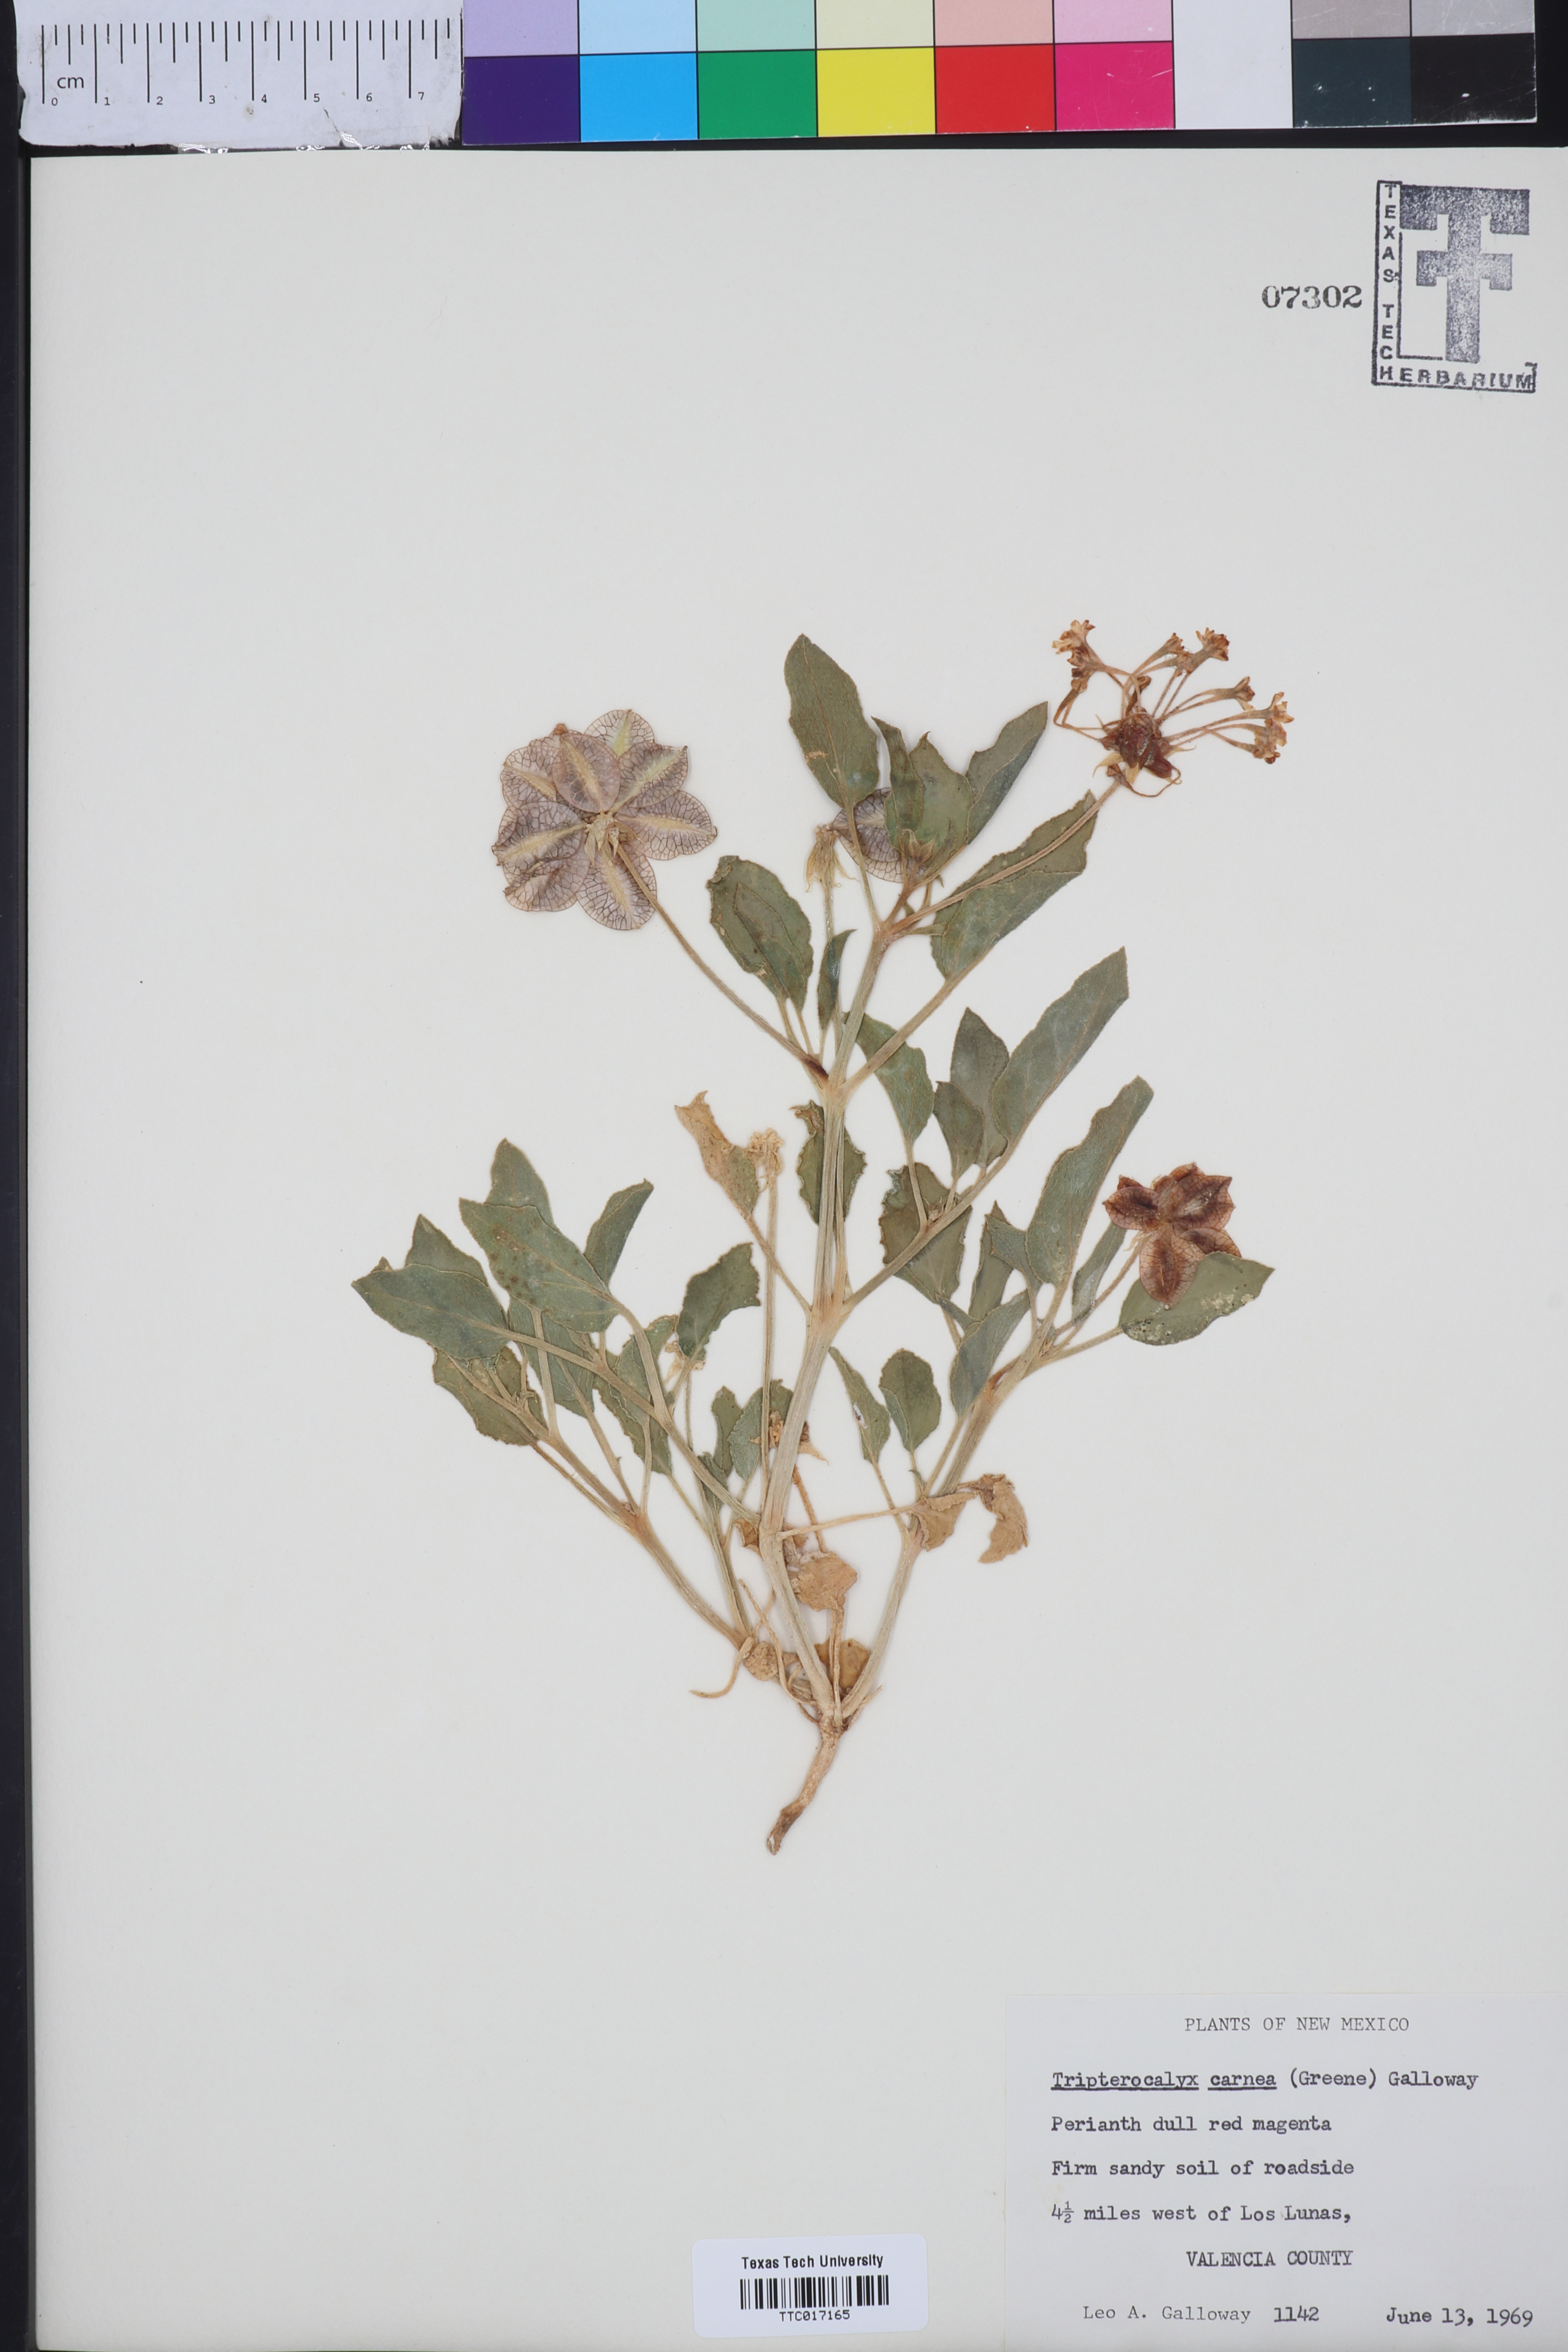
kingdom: Plantae
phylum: Tracheophyta
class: Magnoliopsida
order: Caryophyllales
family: Nyctaginaceae
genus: Tripterocalyx
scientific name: Tripterocalyx carneus
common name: Winged sandpuffs
